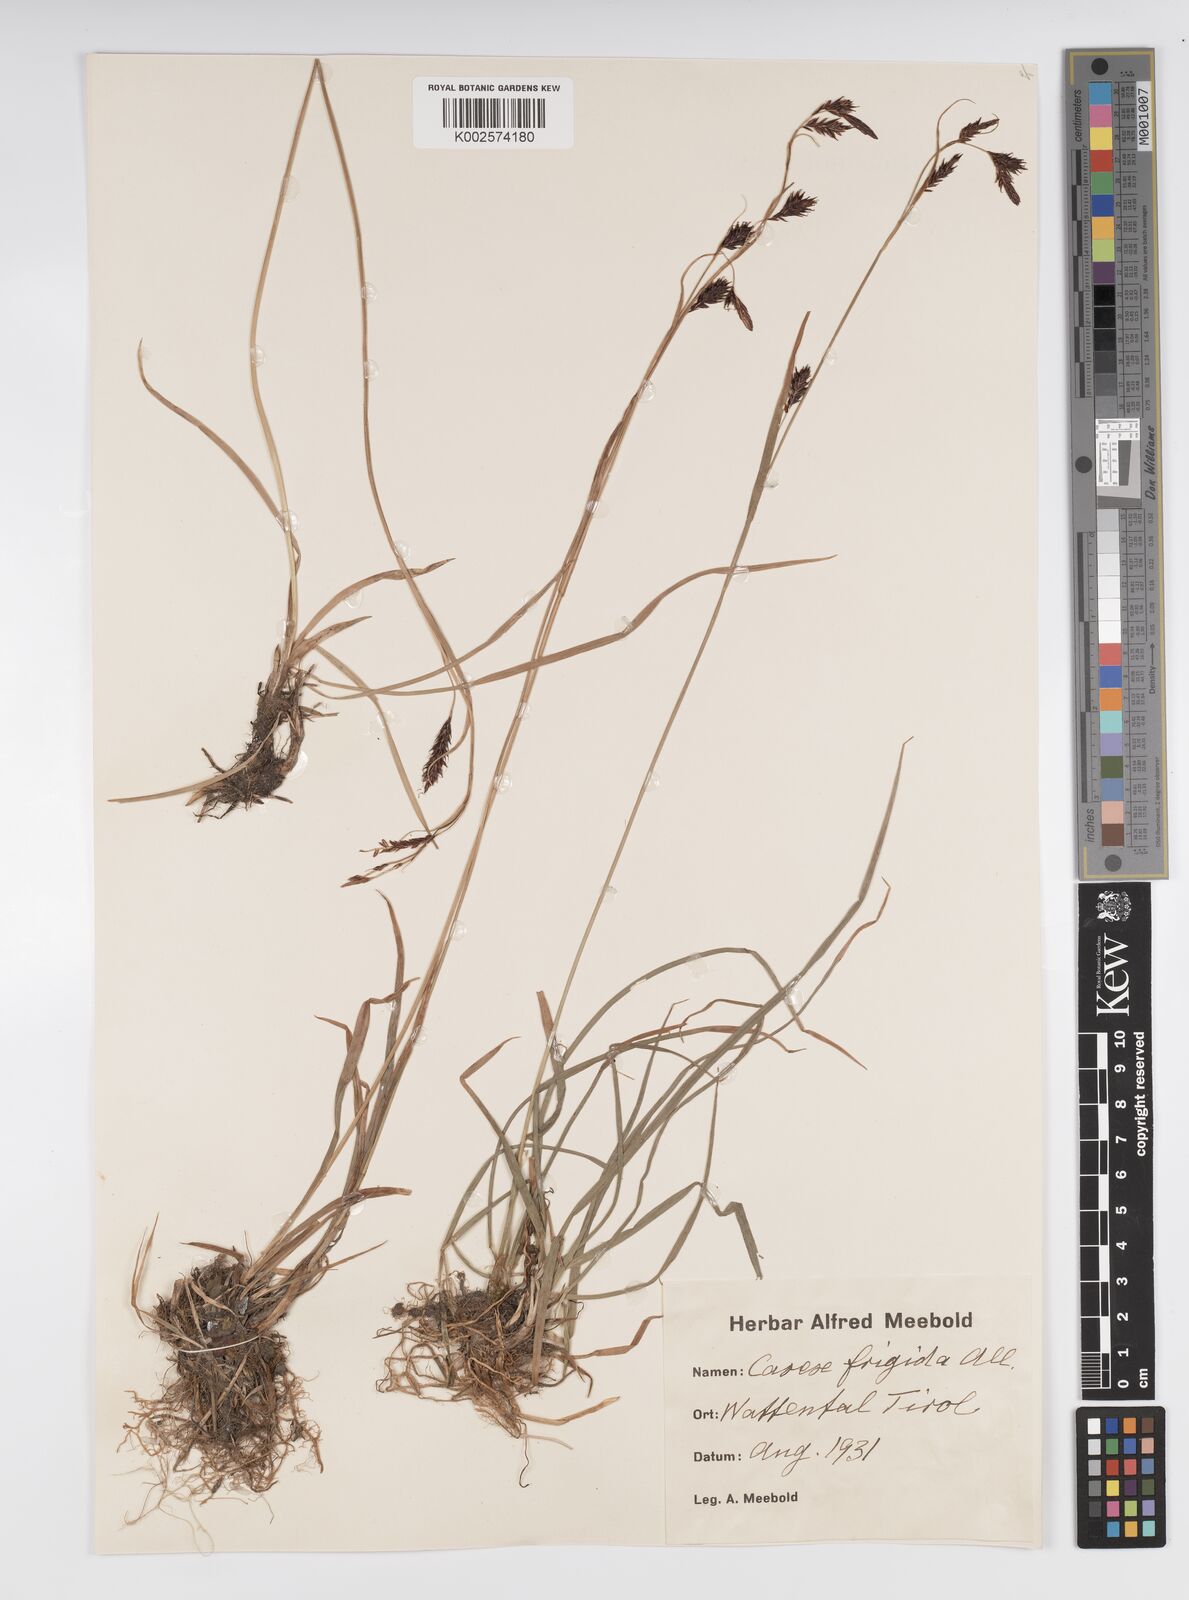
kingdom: Plantae
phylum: Tracheophyta
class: Liliopsida
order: Poales
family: Cyperaceae
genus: Carex
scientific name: Carex frigida
